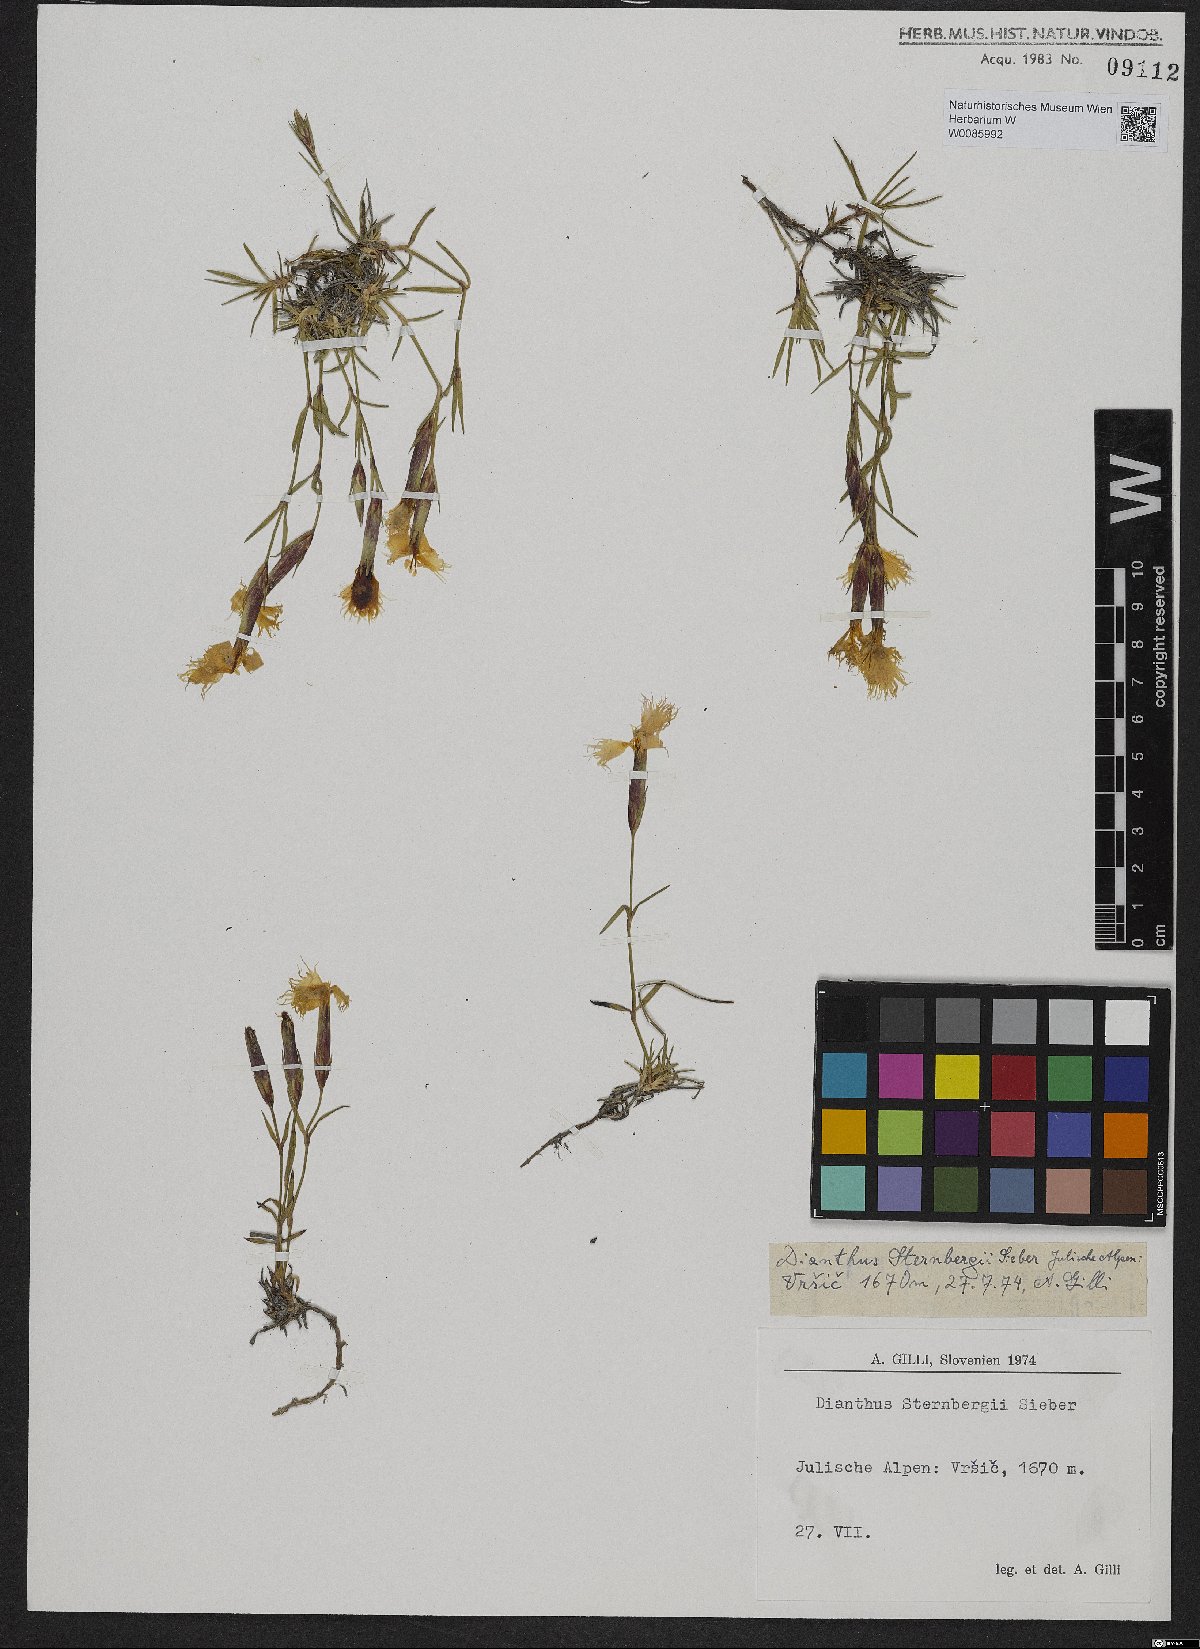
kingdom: Plantae
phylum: Tracheophyta
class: Magnoliopsida
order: Caryophyllales
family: Caryophyllaceae
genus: Dianthus
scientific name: Dianthus sternbergii
